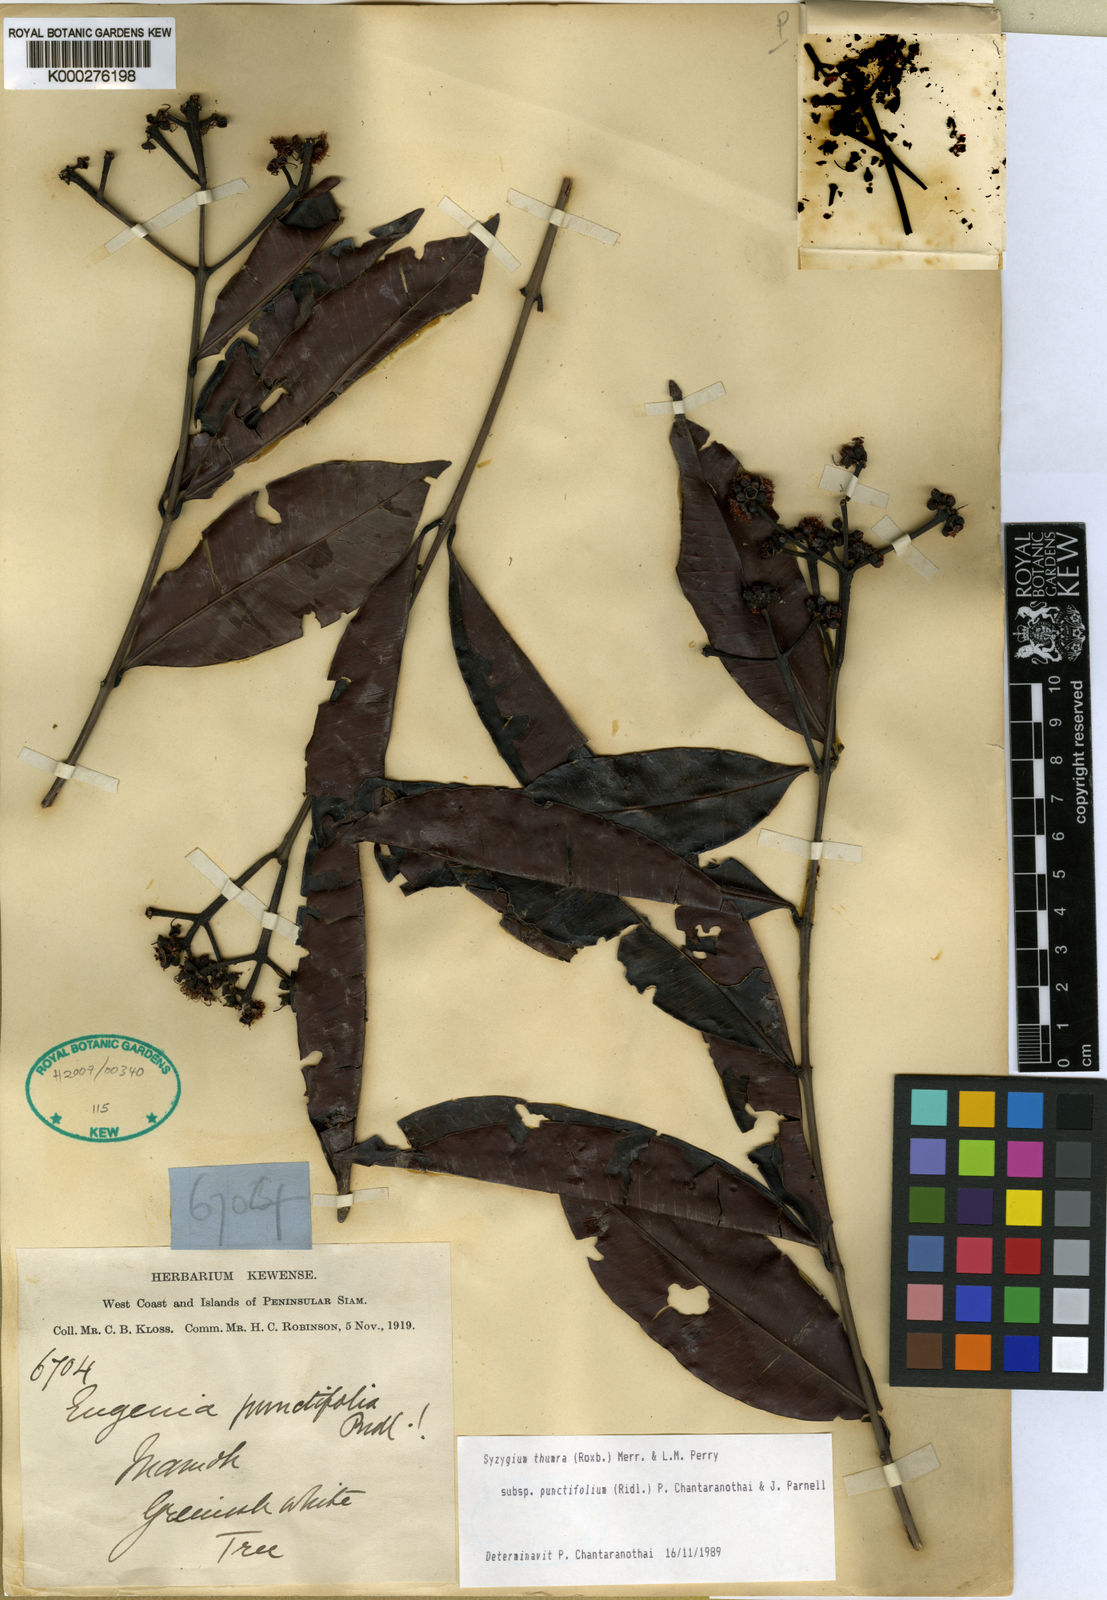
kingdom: Plantae
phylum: Tracheophyta
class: Magnoliopsida
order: Myrtales
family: Myrtaceae
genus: Syzygium
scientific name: Syzygium thumra
